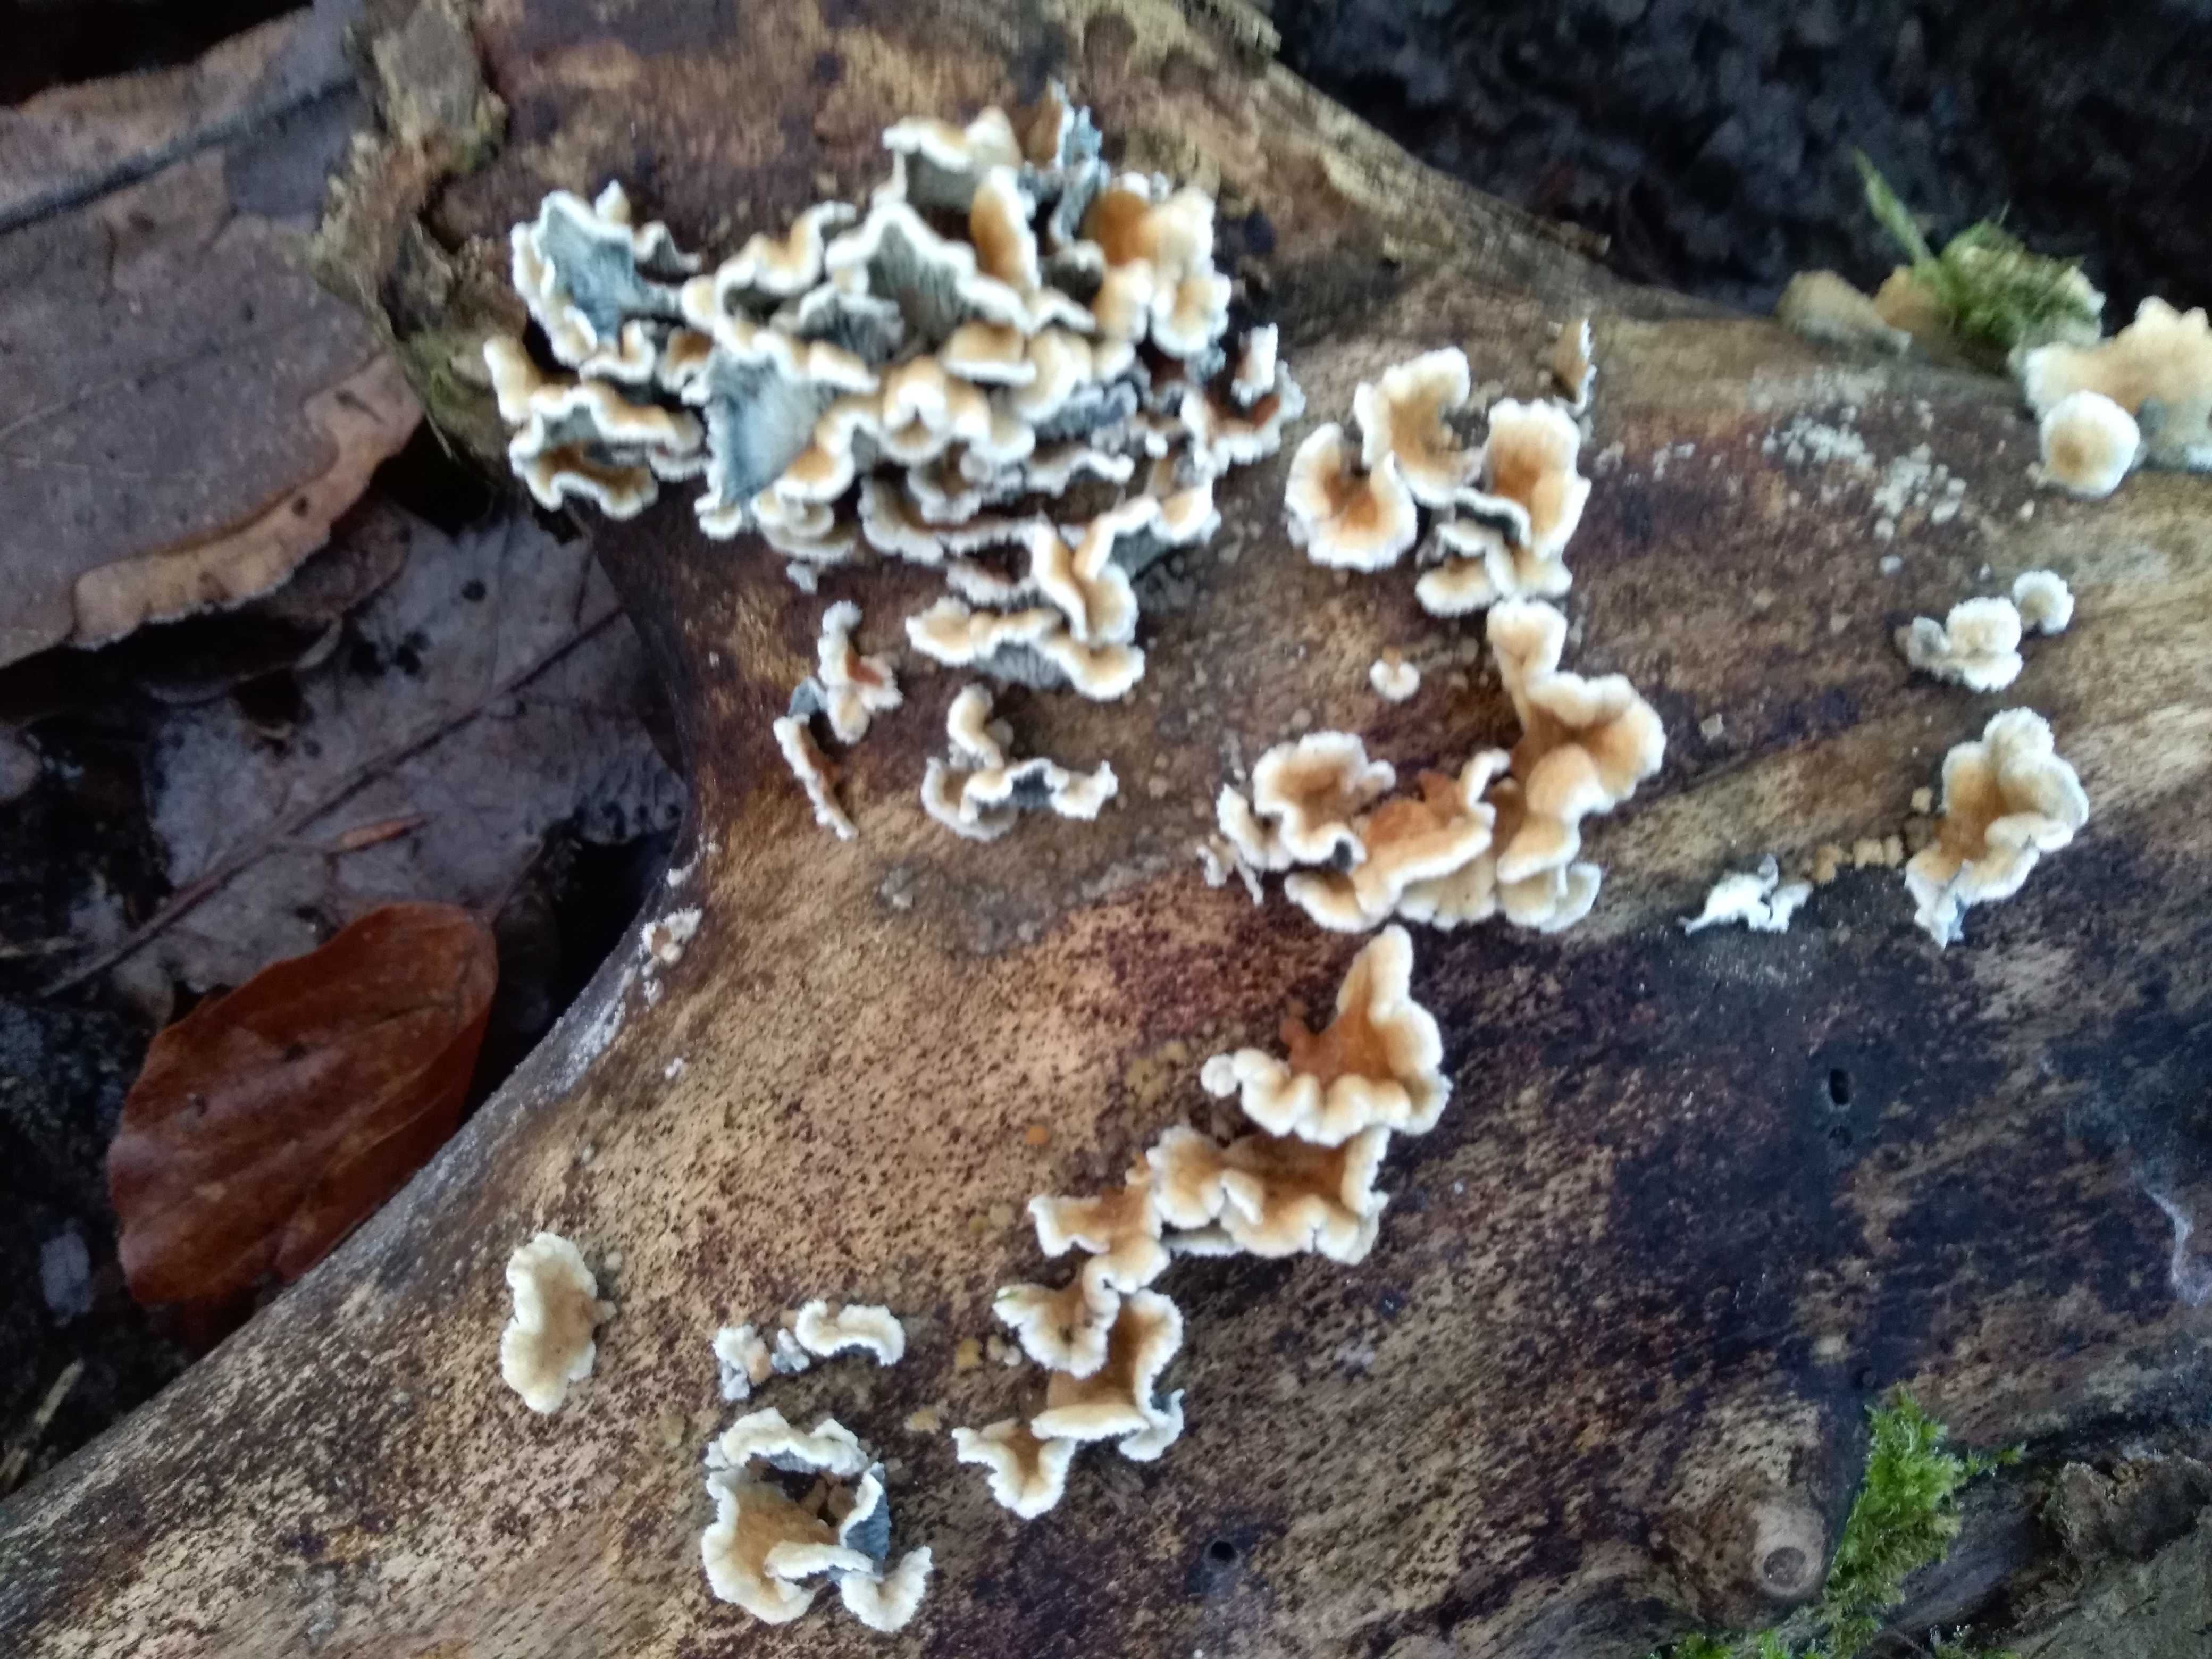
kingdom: Fungi
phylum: Basidiomycota
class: Agaricomycetes
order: Amylocorticiales
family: Amylocorticiaceae
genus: Plicaturopsis
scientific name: Plicaturopsis crispa
